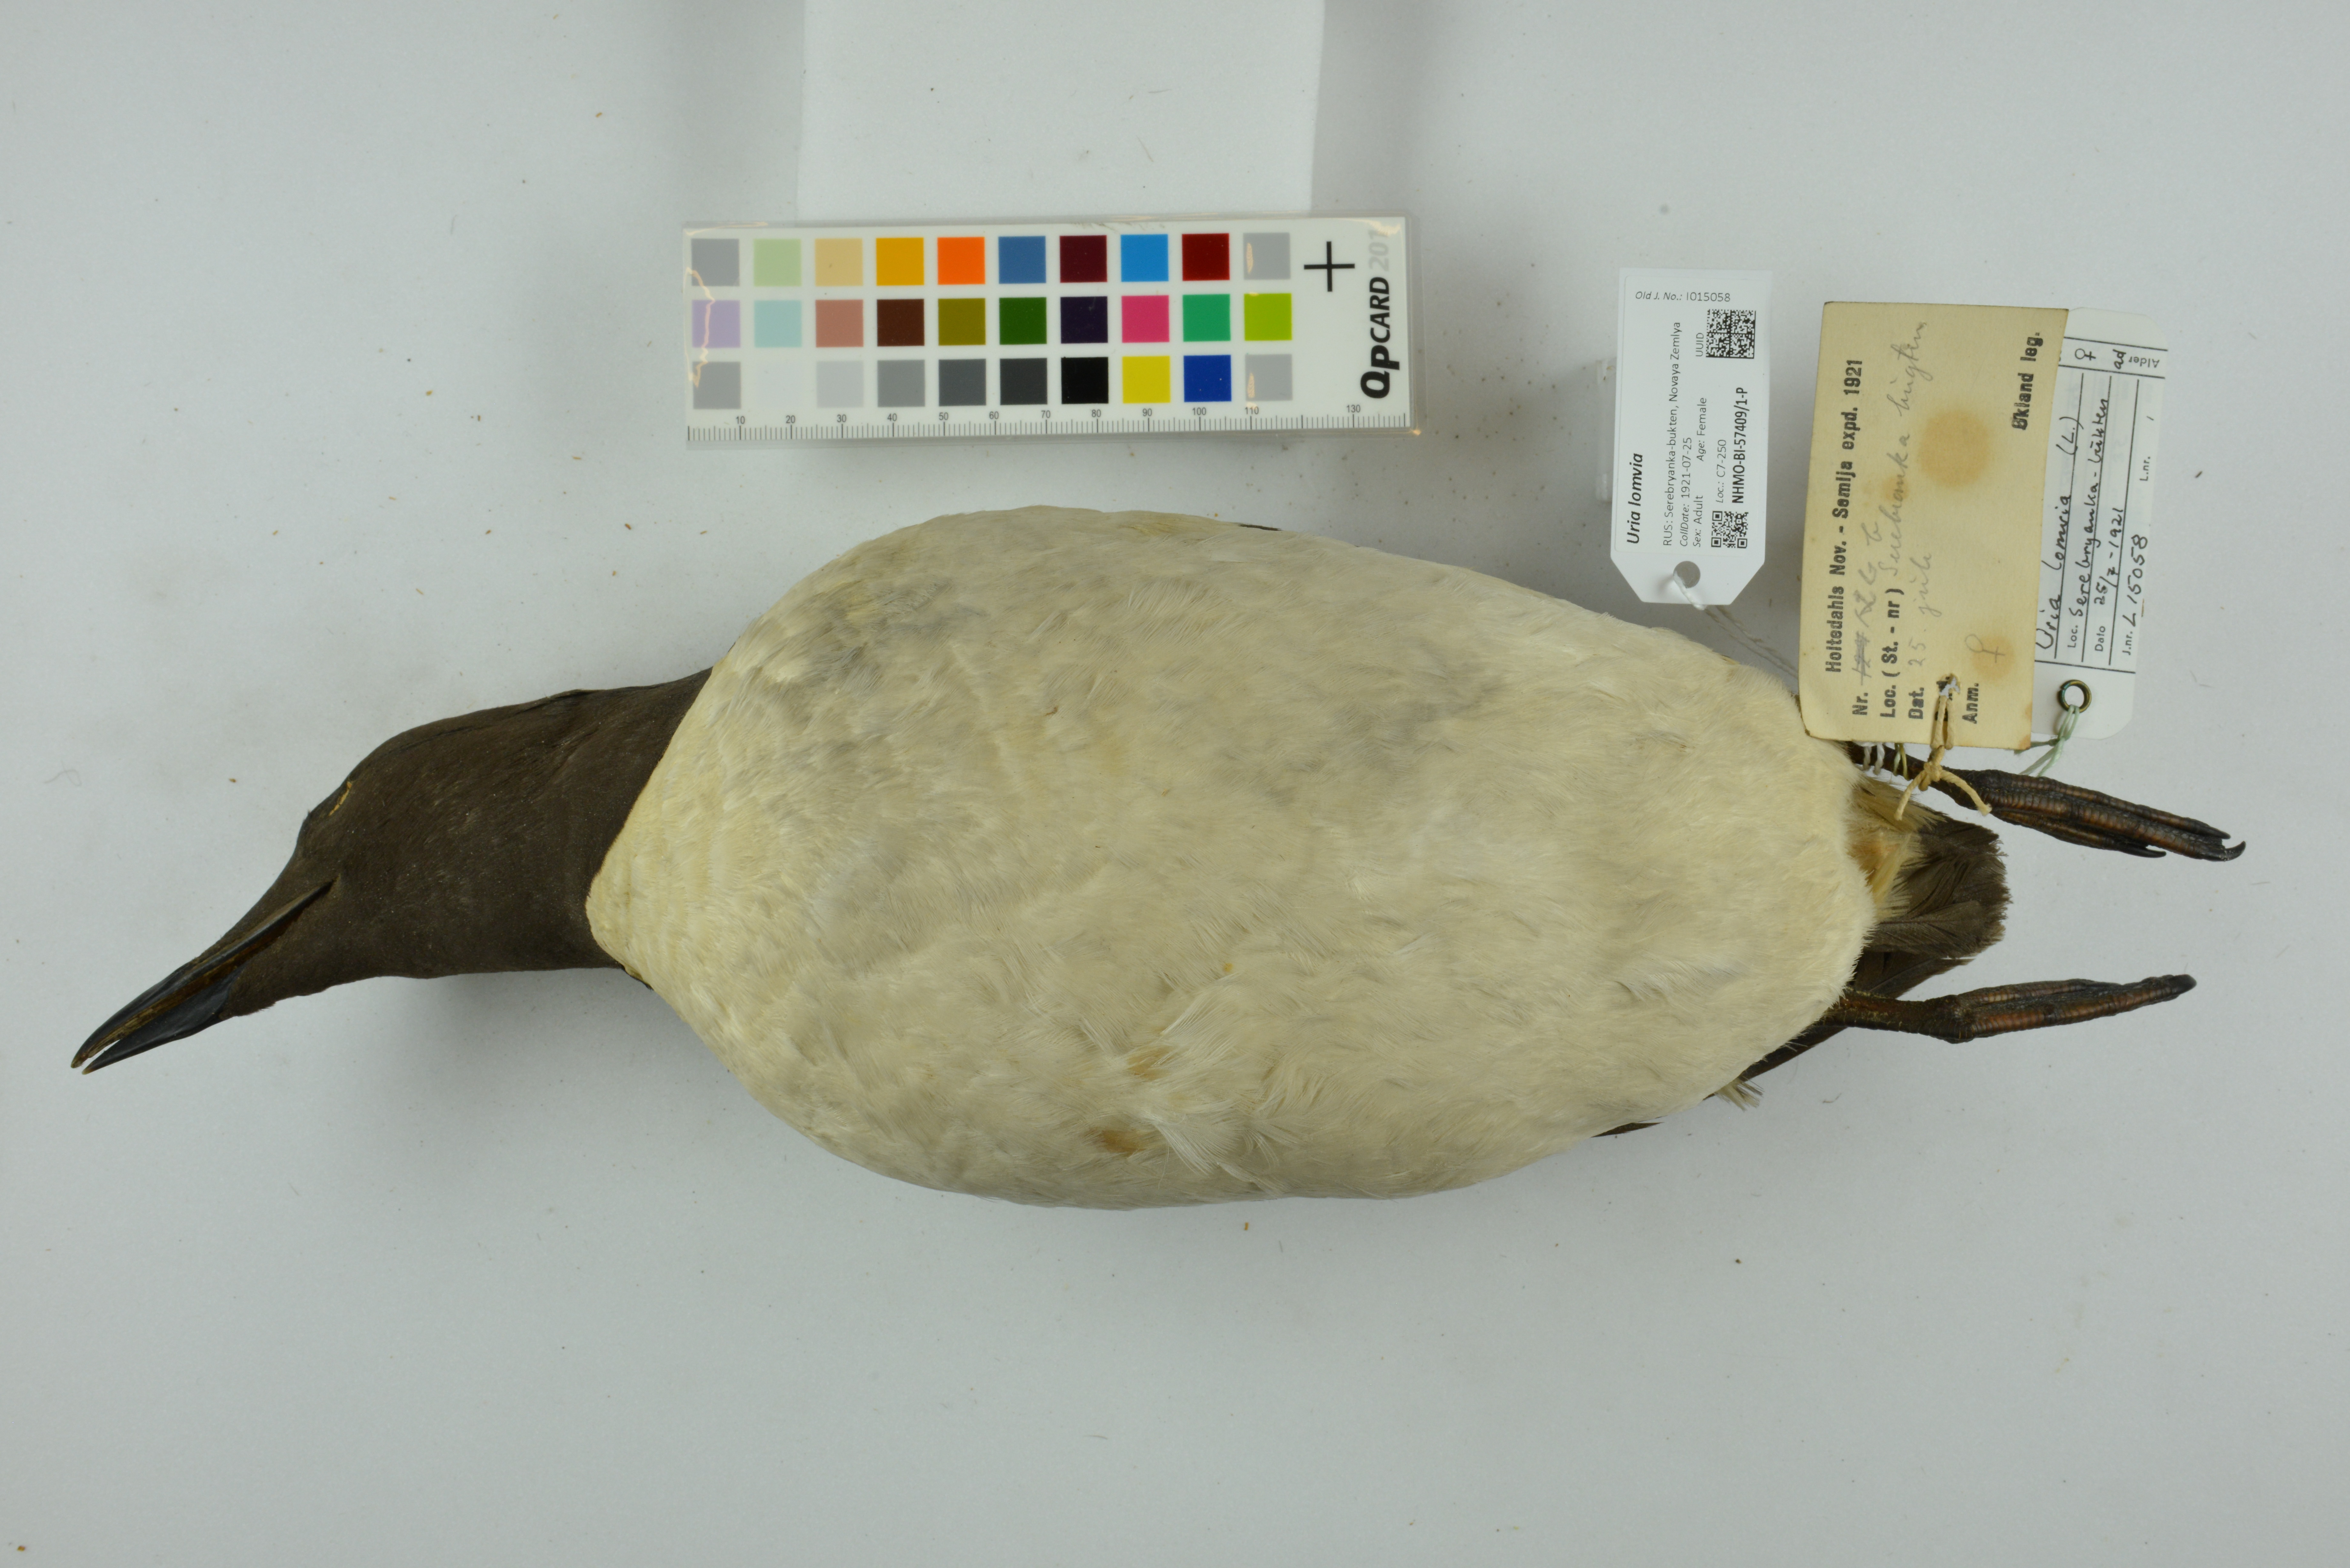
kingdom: Animalia
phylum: Chordata
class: Aves
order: Charadriiformes
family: Alcidae
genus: Uria
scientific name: Uria lomvia
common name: Thick-billed murre
